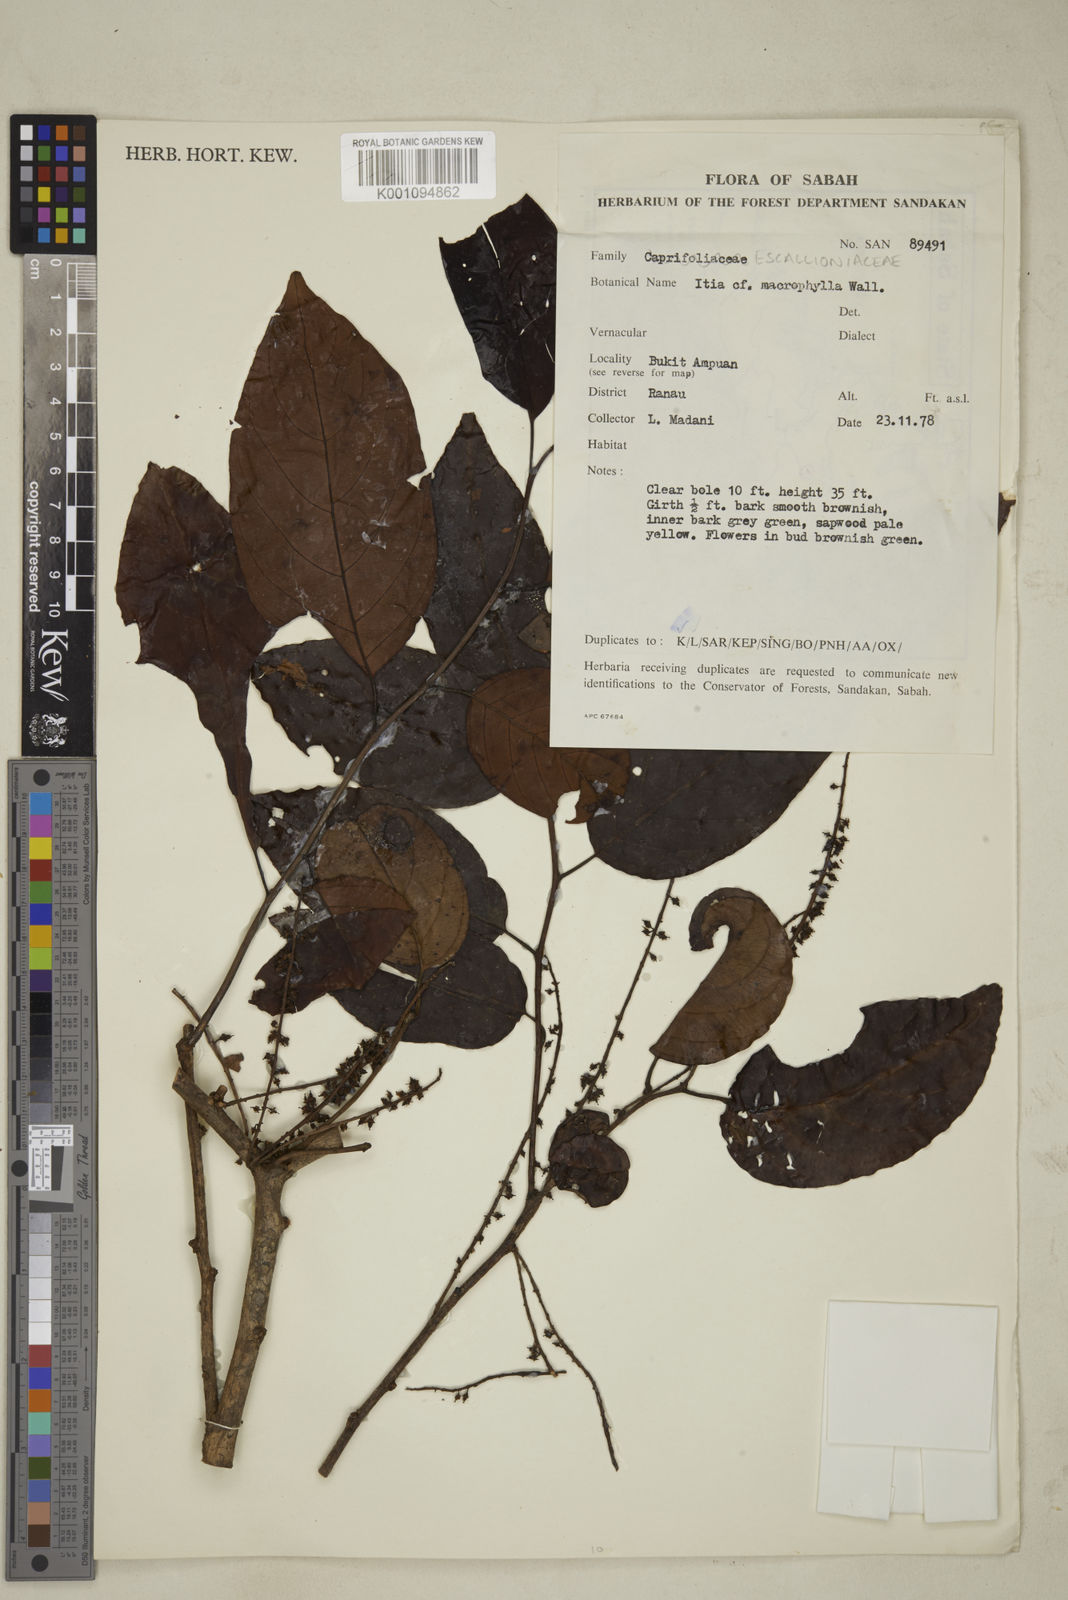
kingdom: Plantae
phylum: Tracheophyta
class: Magnoliopsida
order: Saxifragales
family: Iteaceae
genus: Itea
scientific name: Itea macrophylla
